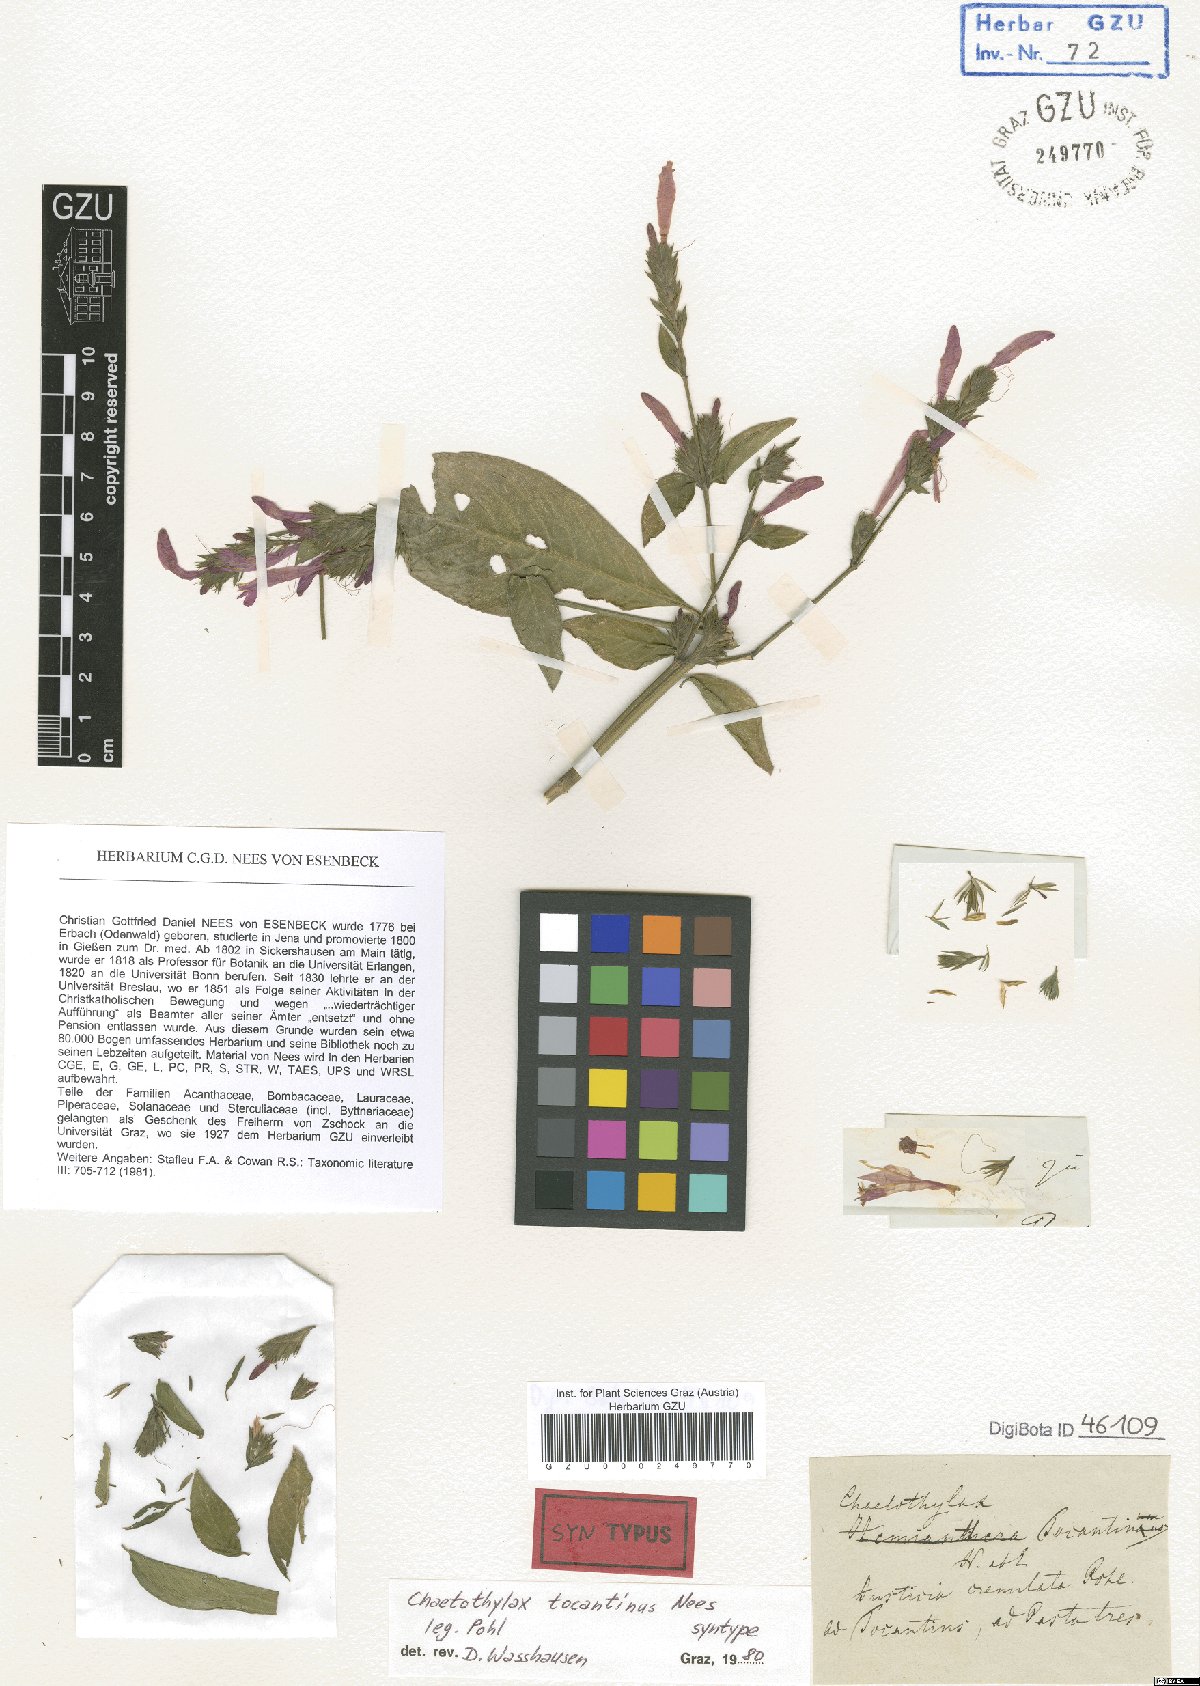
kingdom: Plantae
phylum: Tracheophyta
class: Magnoliopsida
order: Lamiales
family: Acanthaceae
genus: Justicia
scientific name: Justicia tocantina
